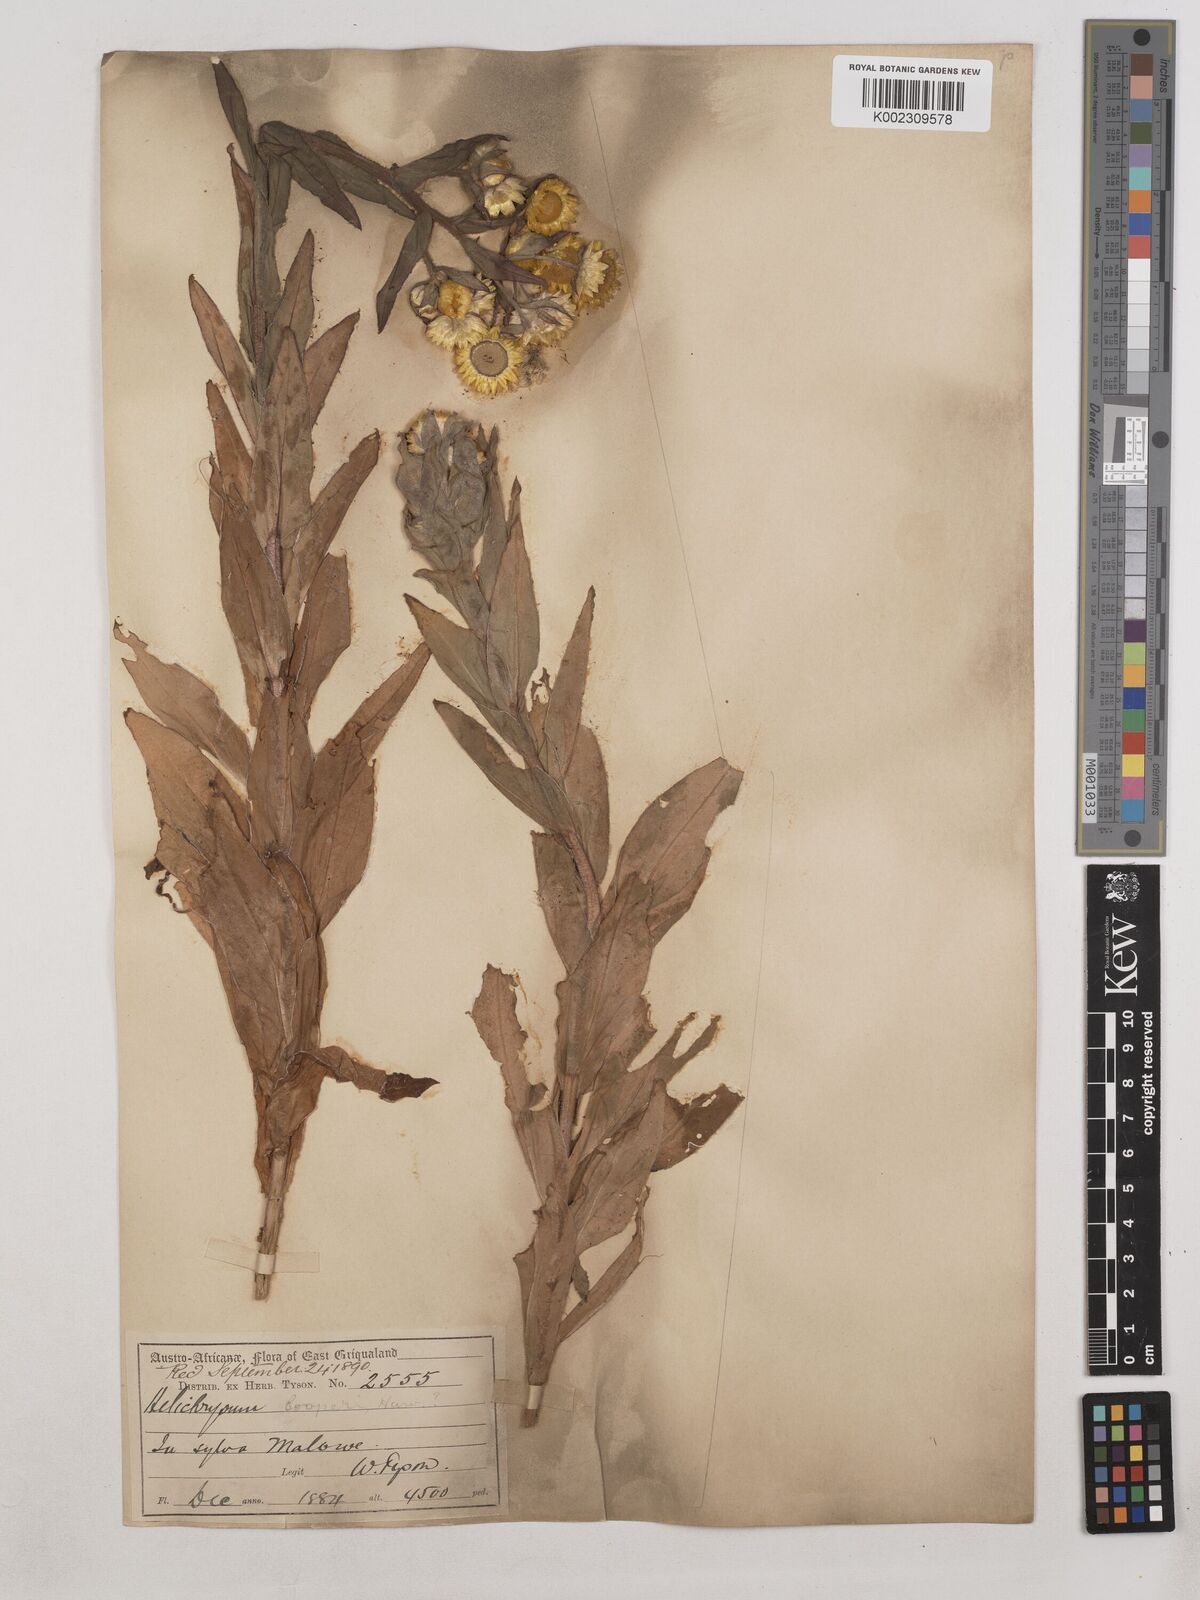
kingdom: Plantae
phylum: Tracheophyta
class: Magnoliopsida
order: Asterales
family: Asteraceae
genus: Helichrysum
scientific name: Helichrysum cooperi
